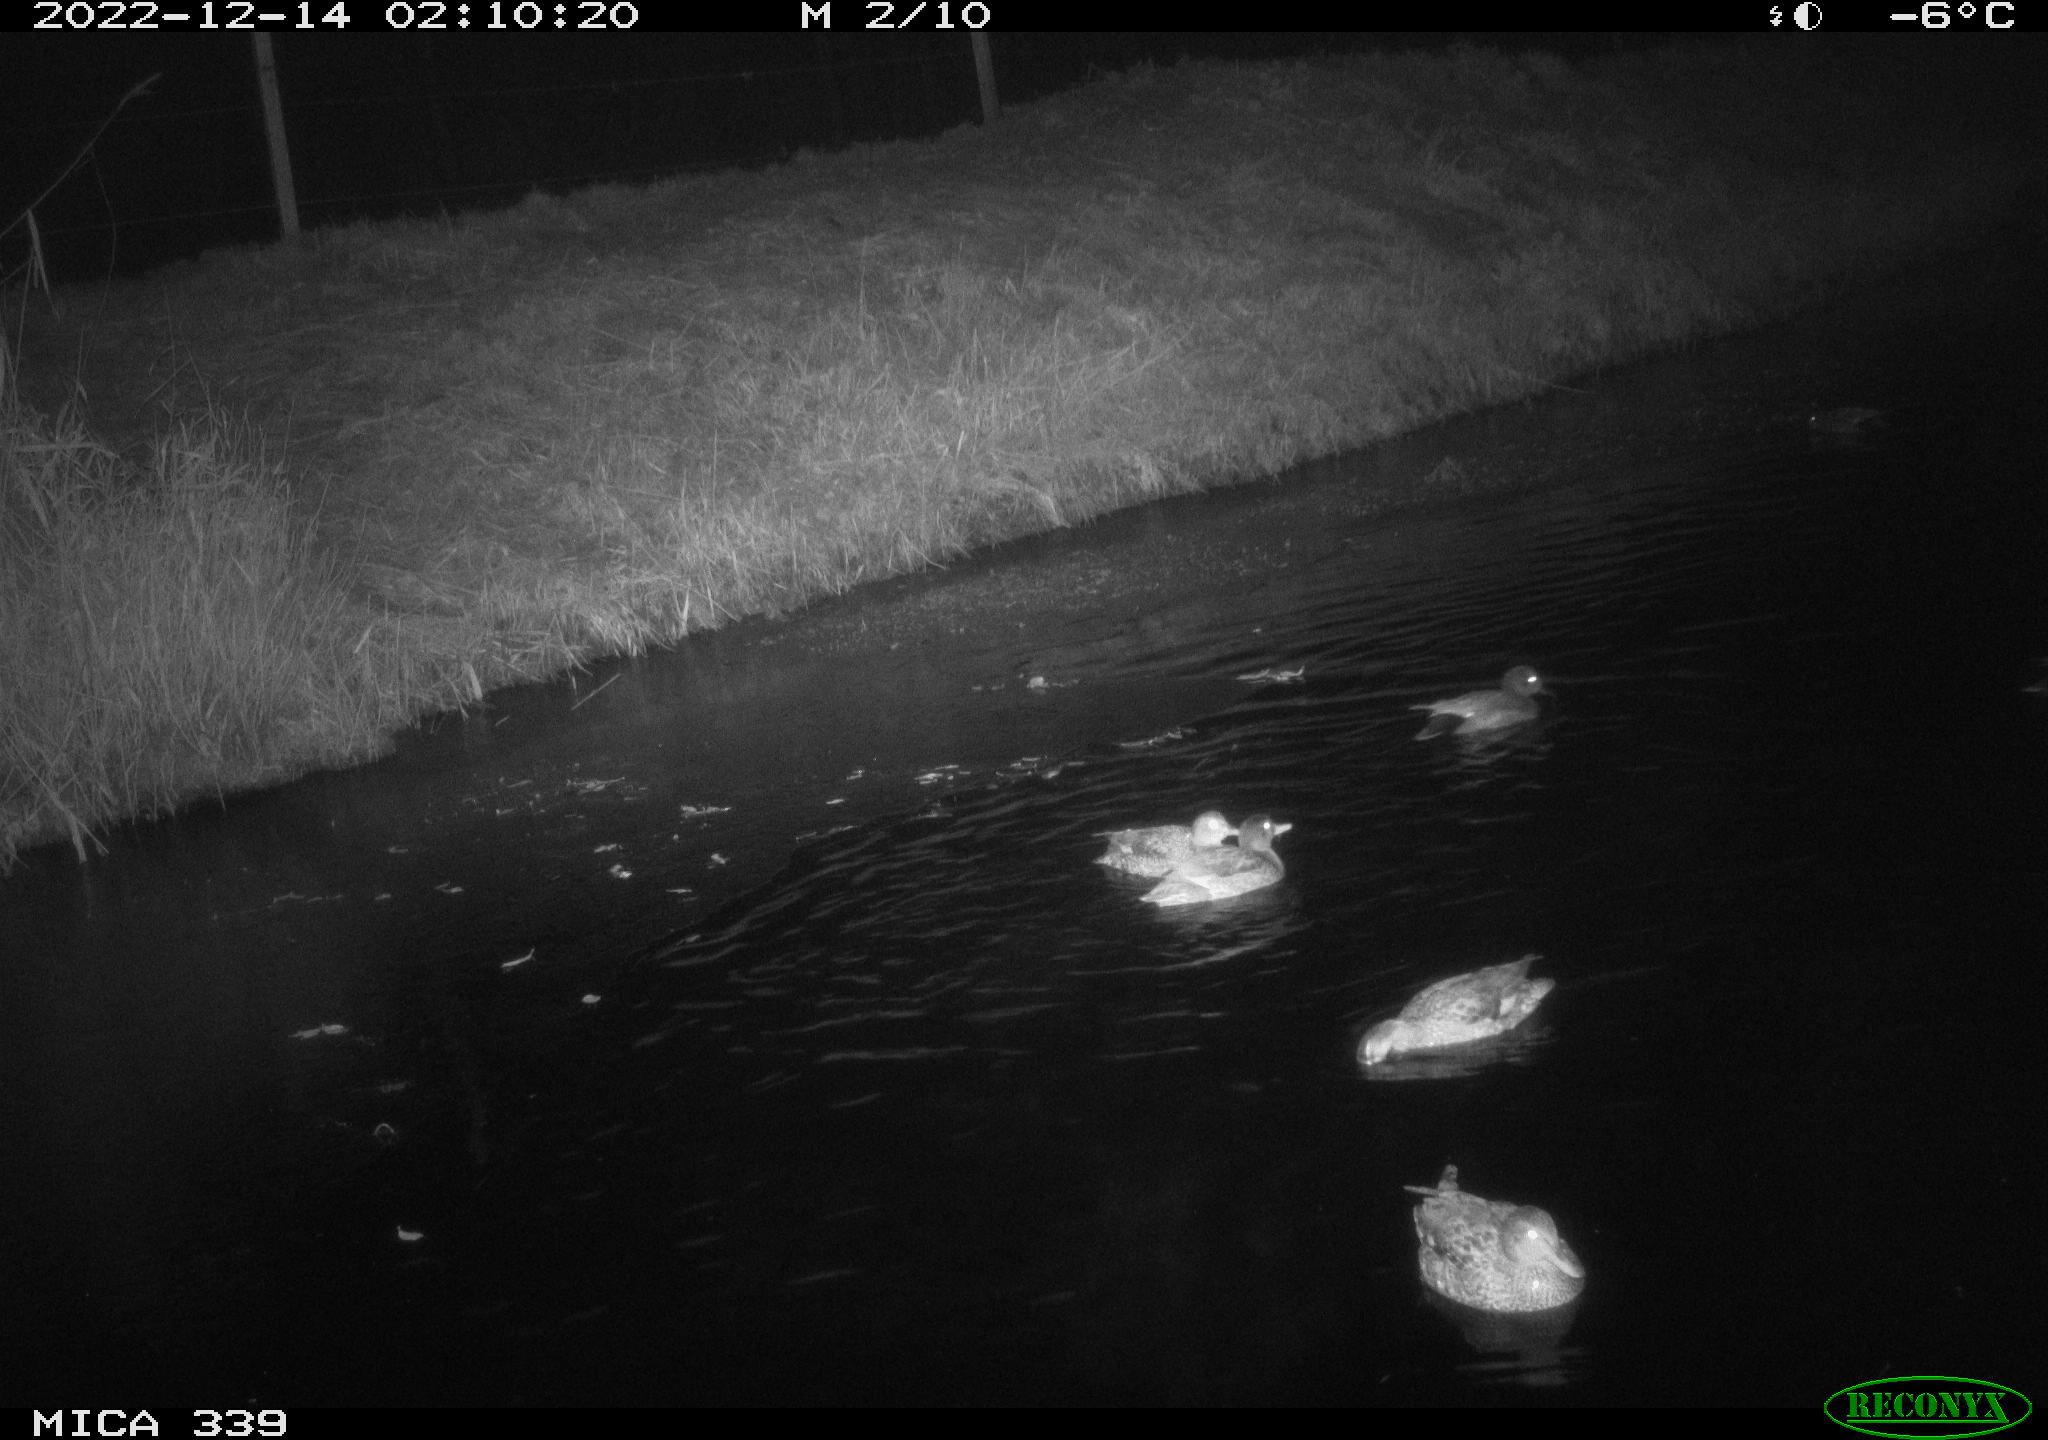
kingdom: Animalia
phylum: Chordata
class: Aves
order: Anseriformes
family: Anatidae
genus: Anas
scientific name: Anas
